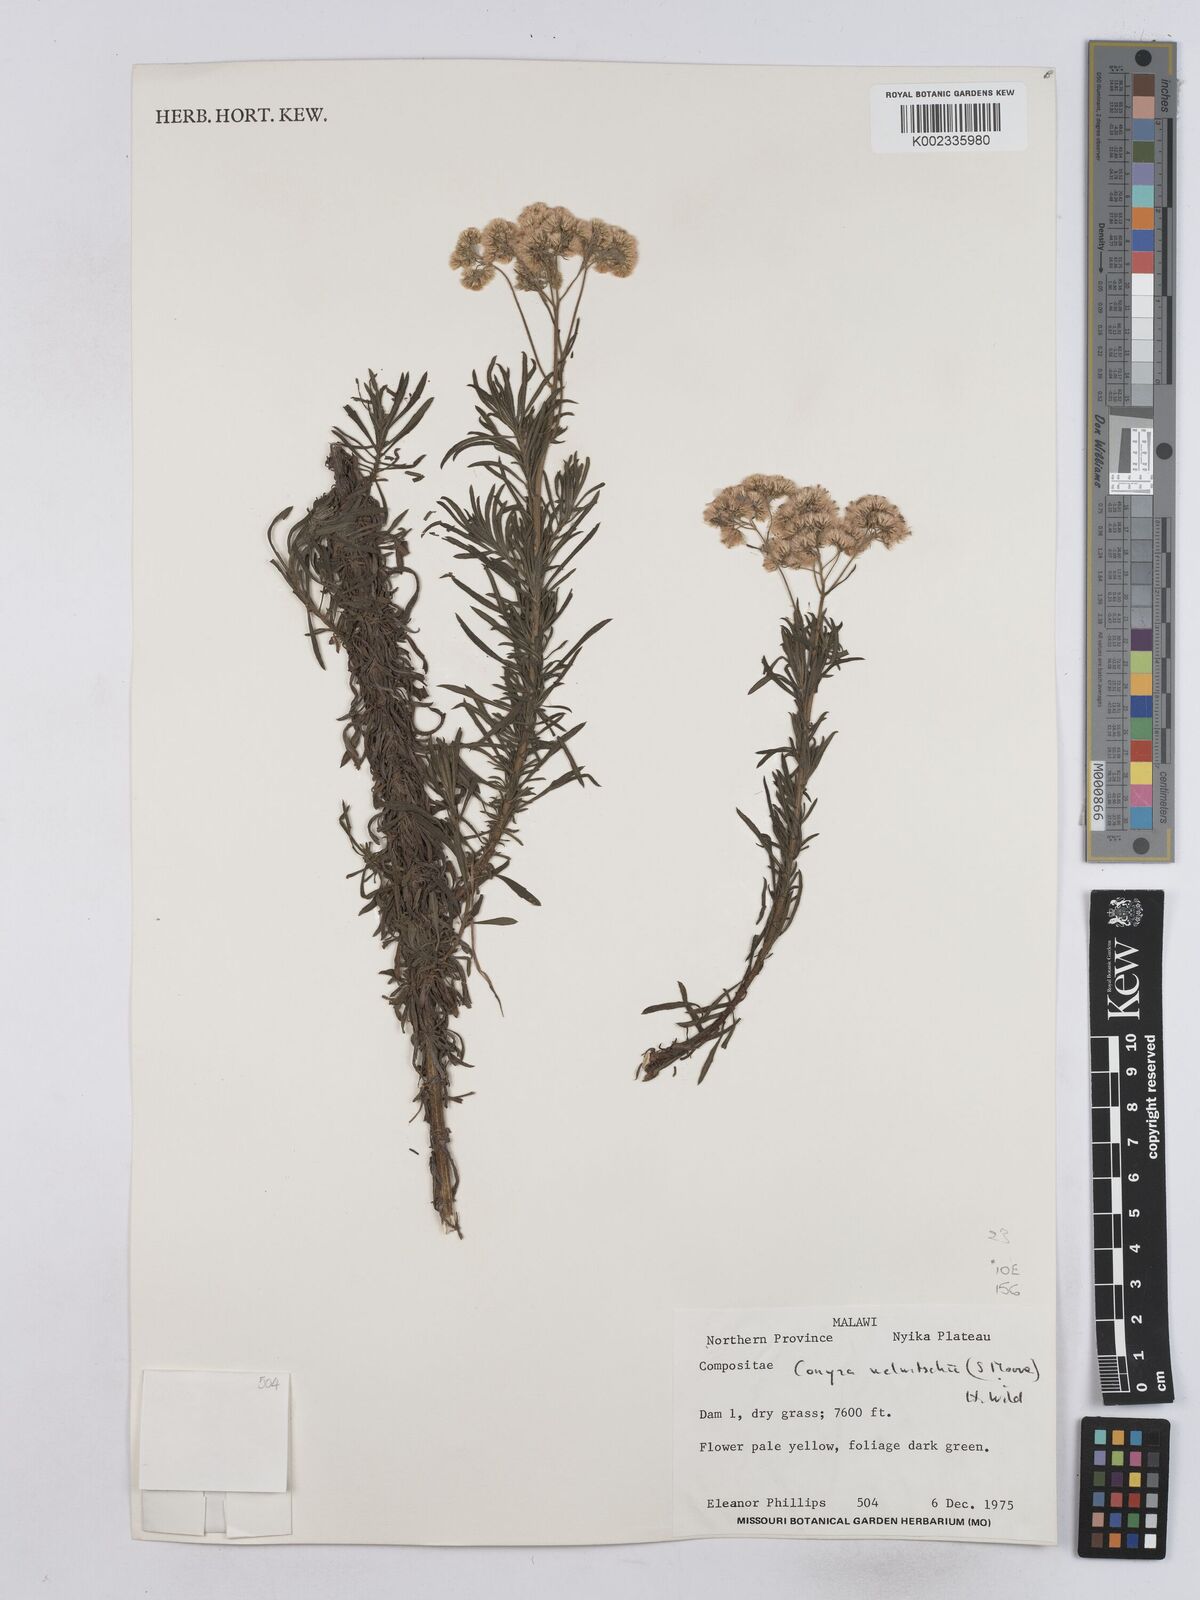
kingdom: Plantae
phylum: Tracheophyta
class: Magnoliopsida
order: Asterales
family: Asteraceae
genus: Nidorella
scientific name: Nidorella welwitschii
